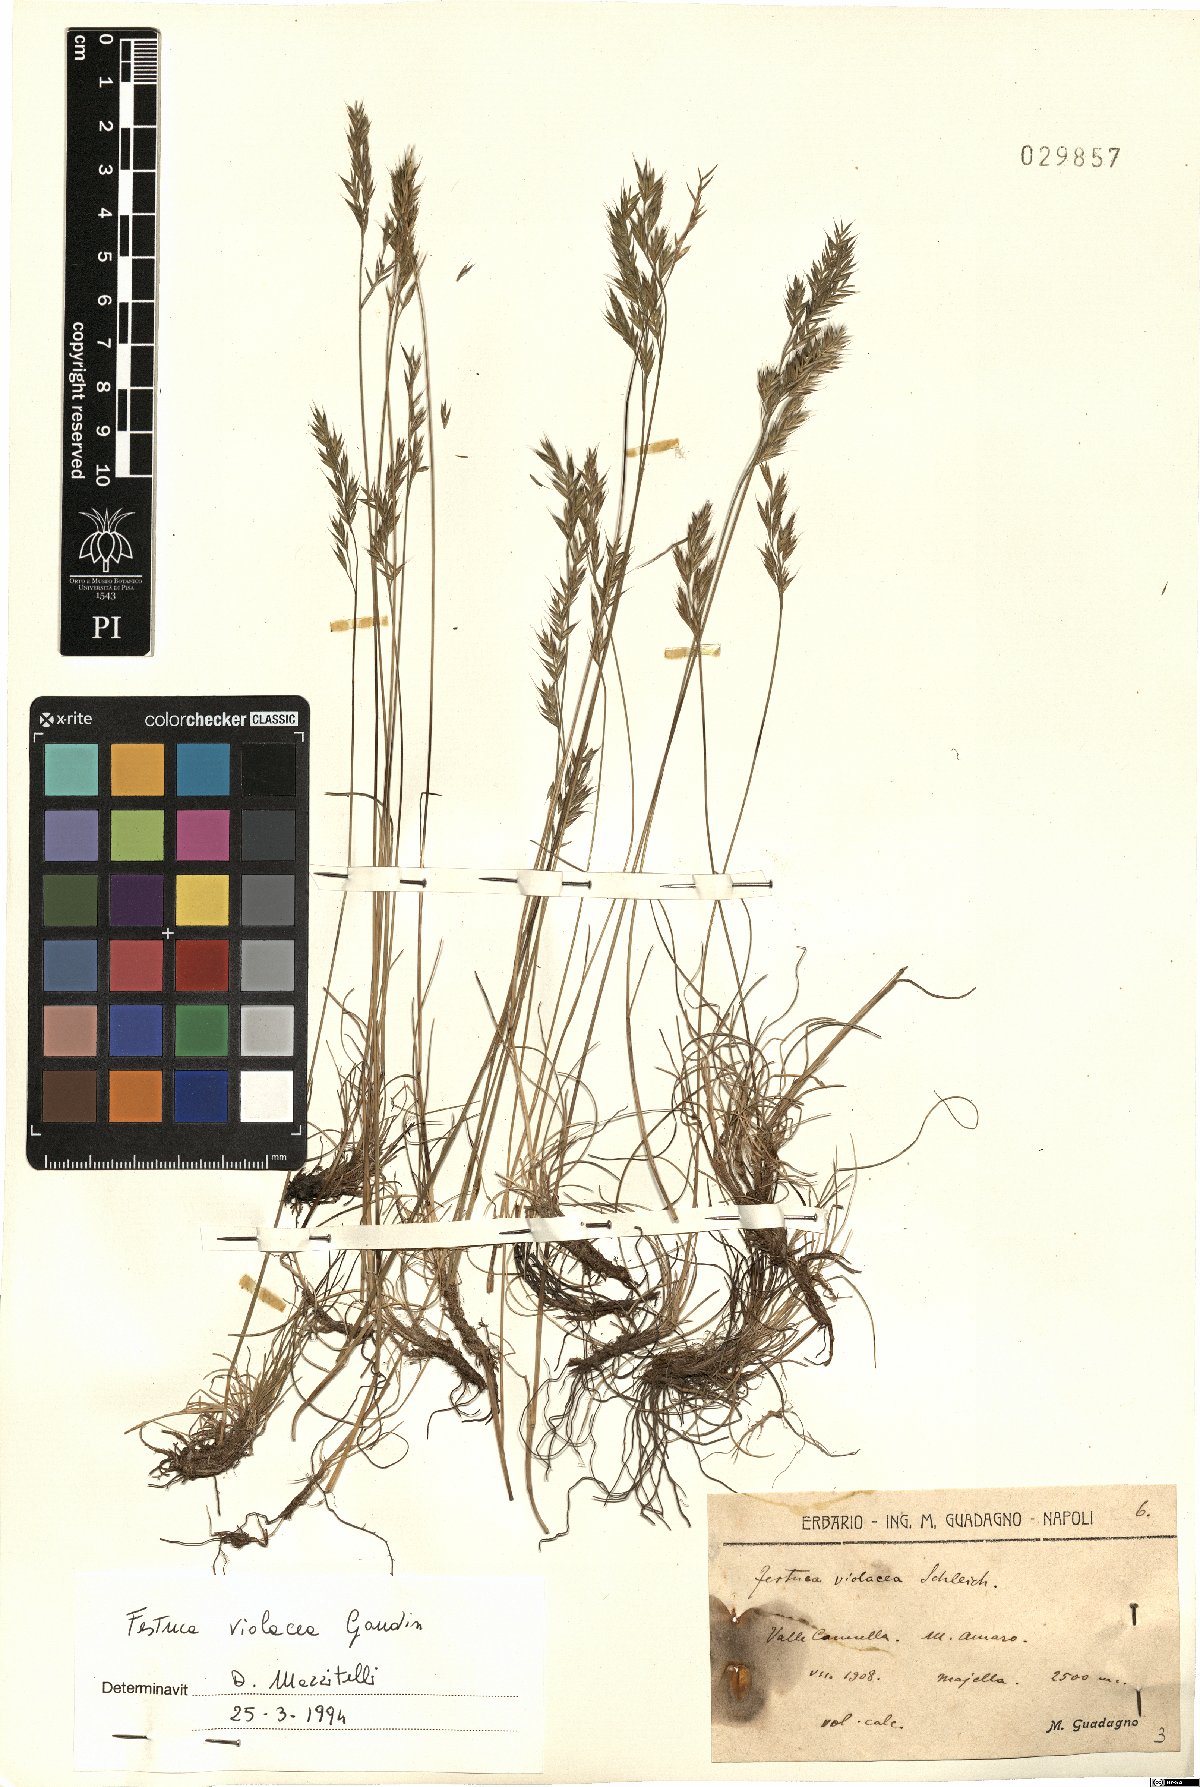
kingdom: Plantae
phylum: Tracheophyta
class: Liliopsida
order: Poales
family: Poaceae
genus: Festuca
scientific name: Festuca violacea
